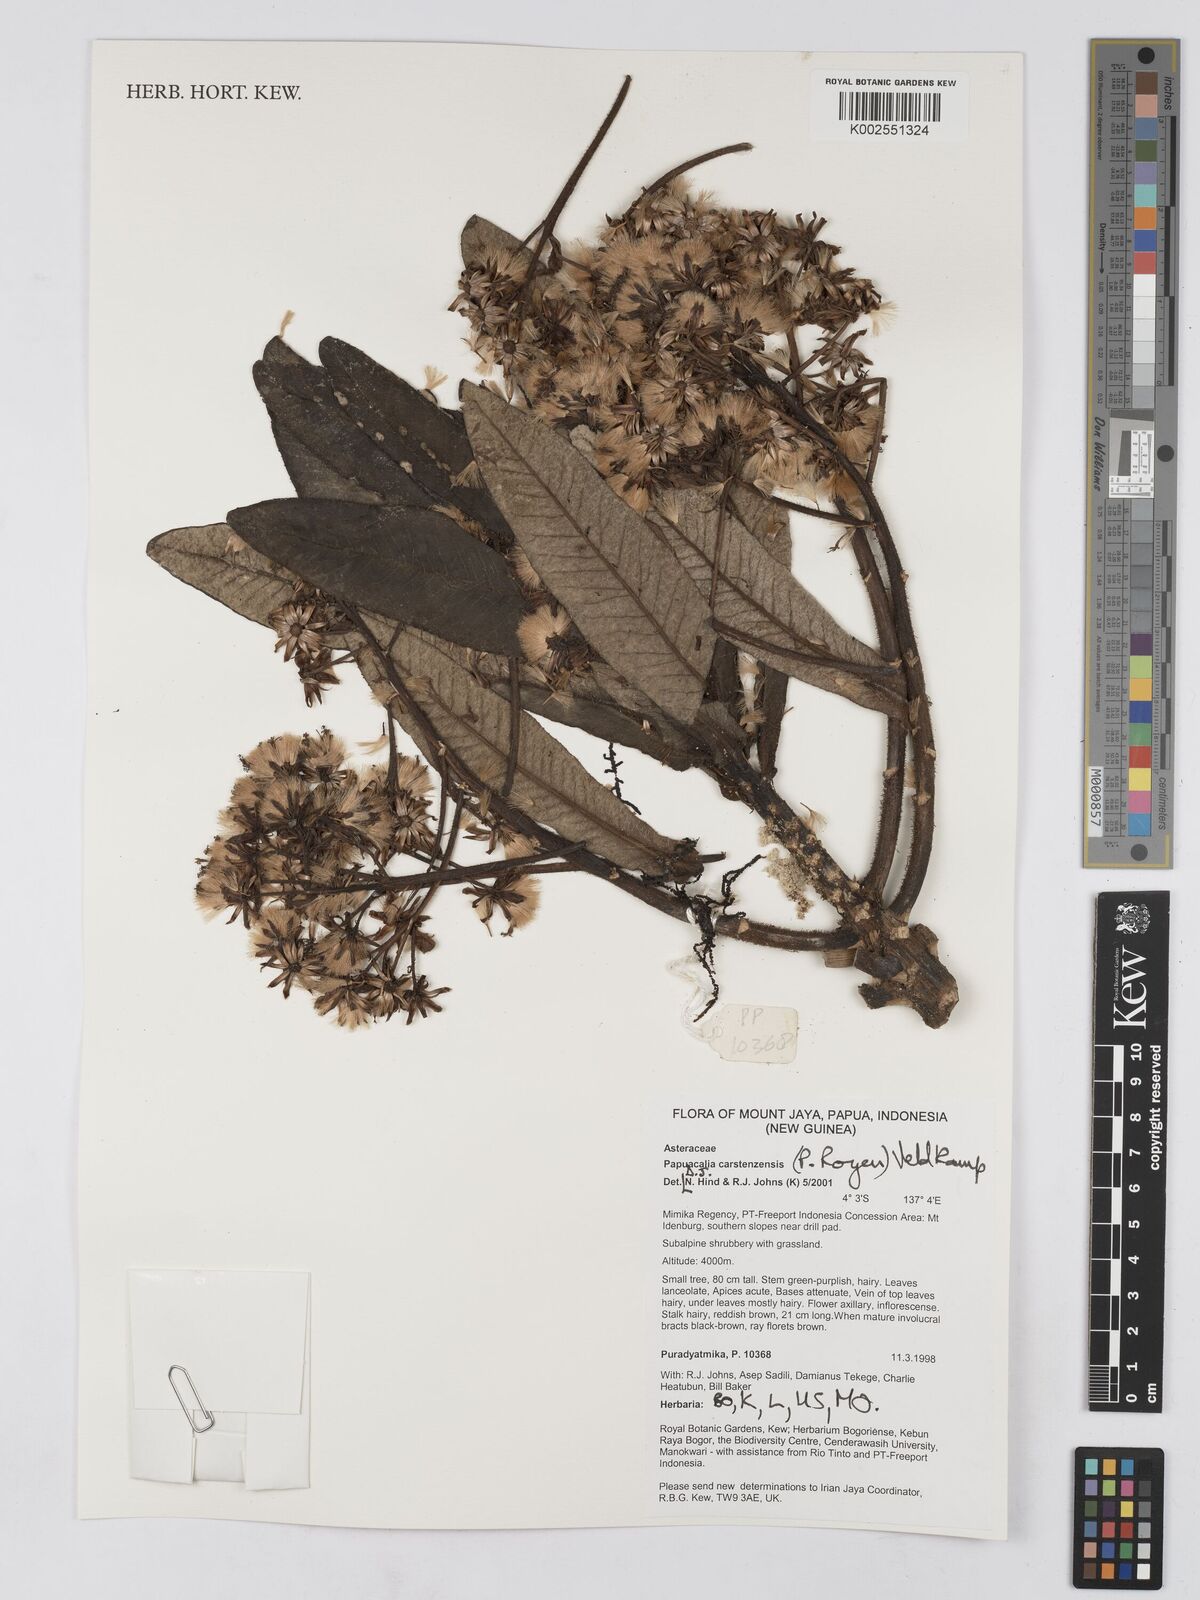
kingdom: Plantae
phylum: Tracheophyta
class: Magnoliopsida
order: Asterales
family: Asteraceae
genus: Papuacalia
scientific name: Papuacalia carstenszensis
